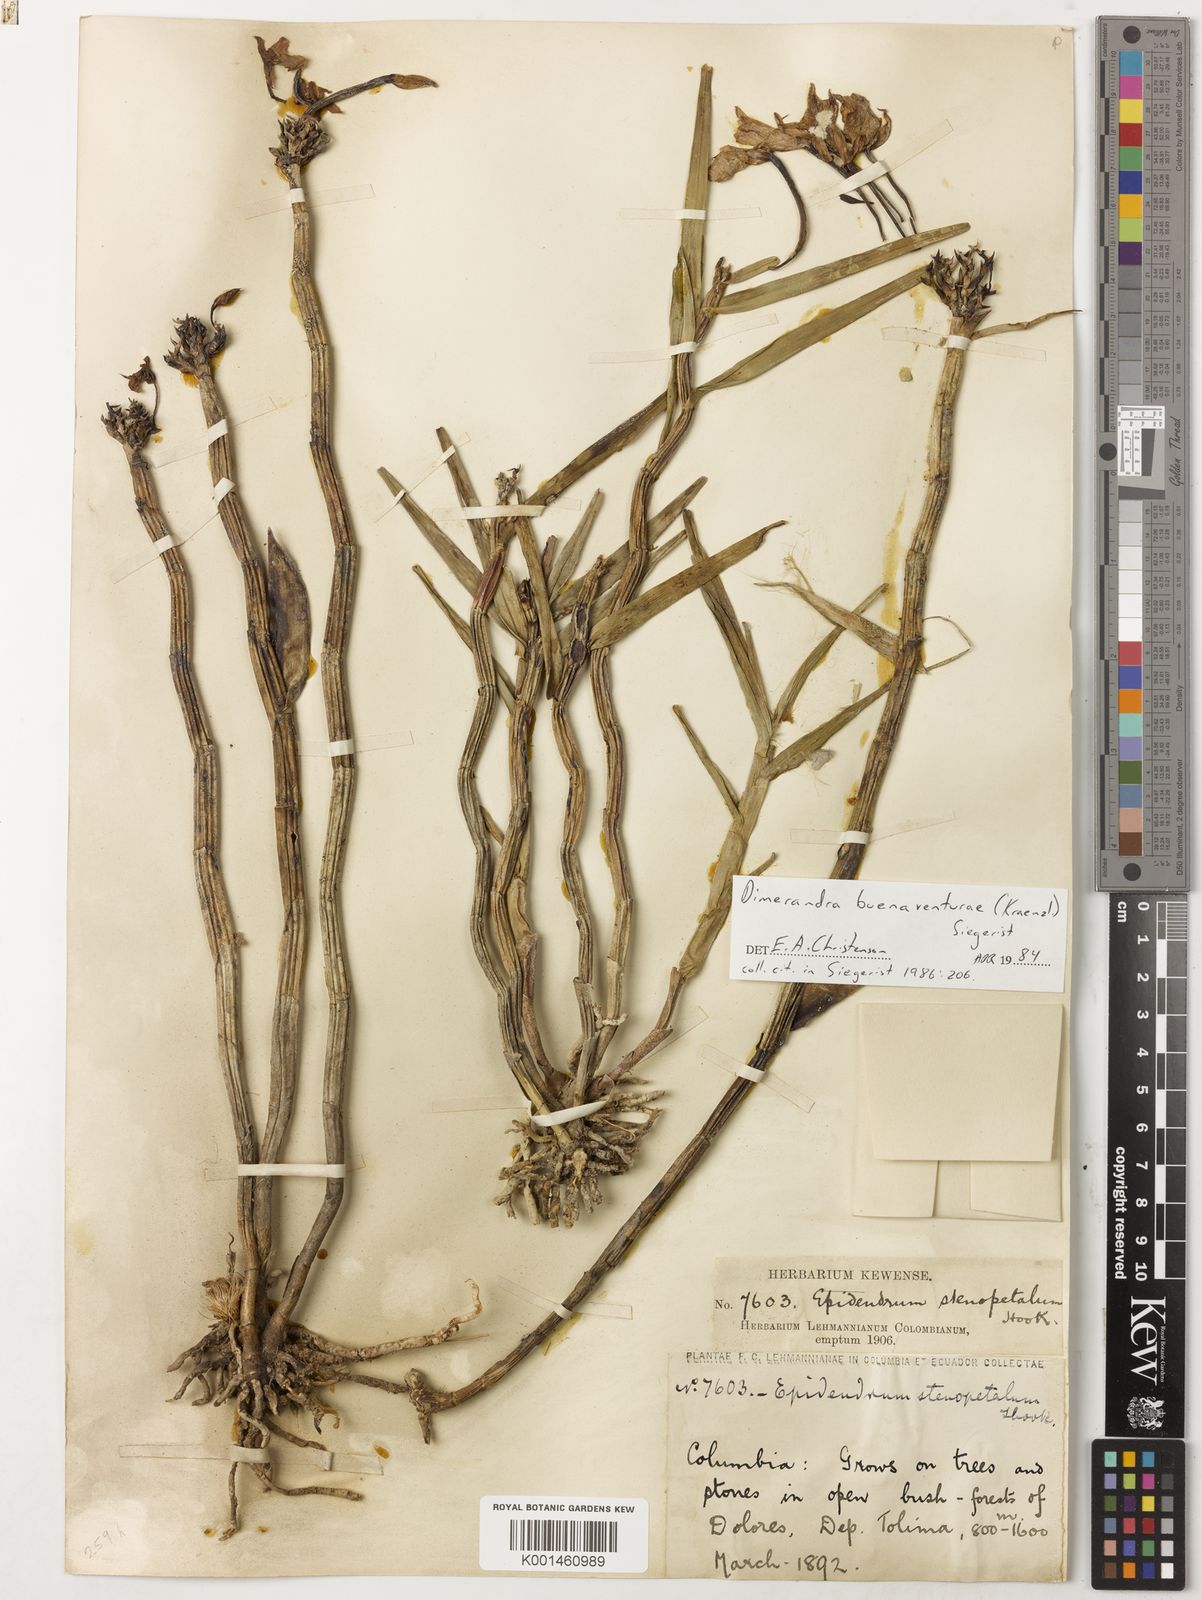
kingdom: Plantae
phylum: Tracheophyta
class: Liliopsida
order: Asparagales
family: Orchidaceae
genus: Dimerandra
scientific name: Dimerandra buenaventurae
